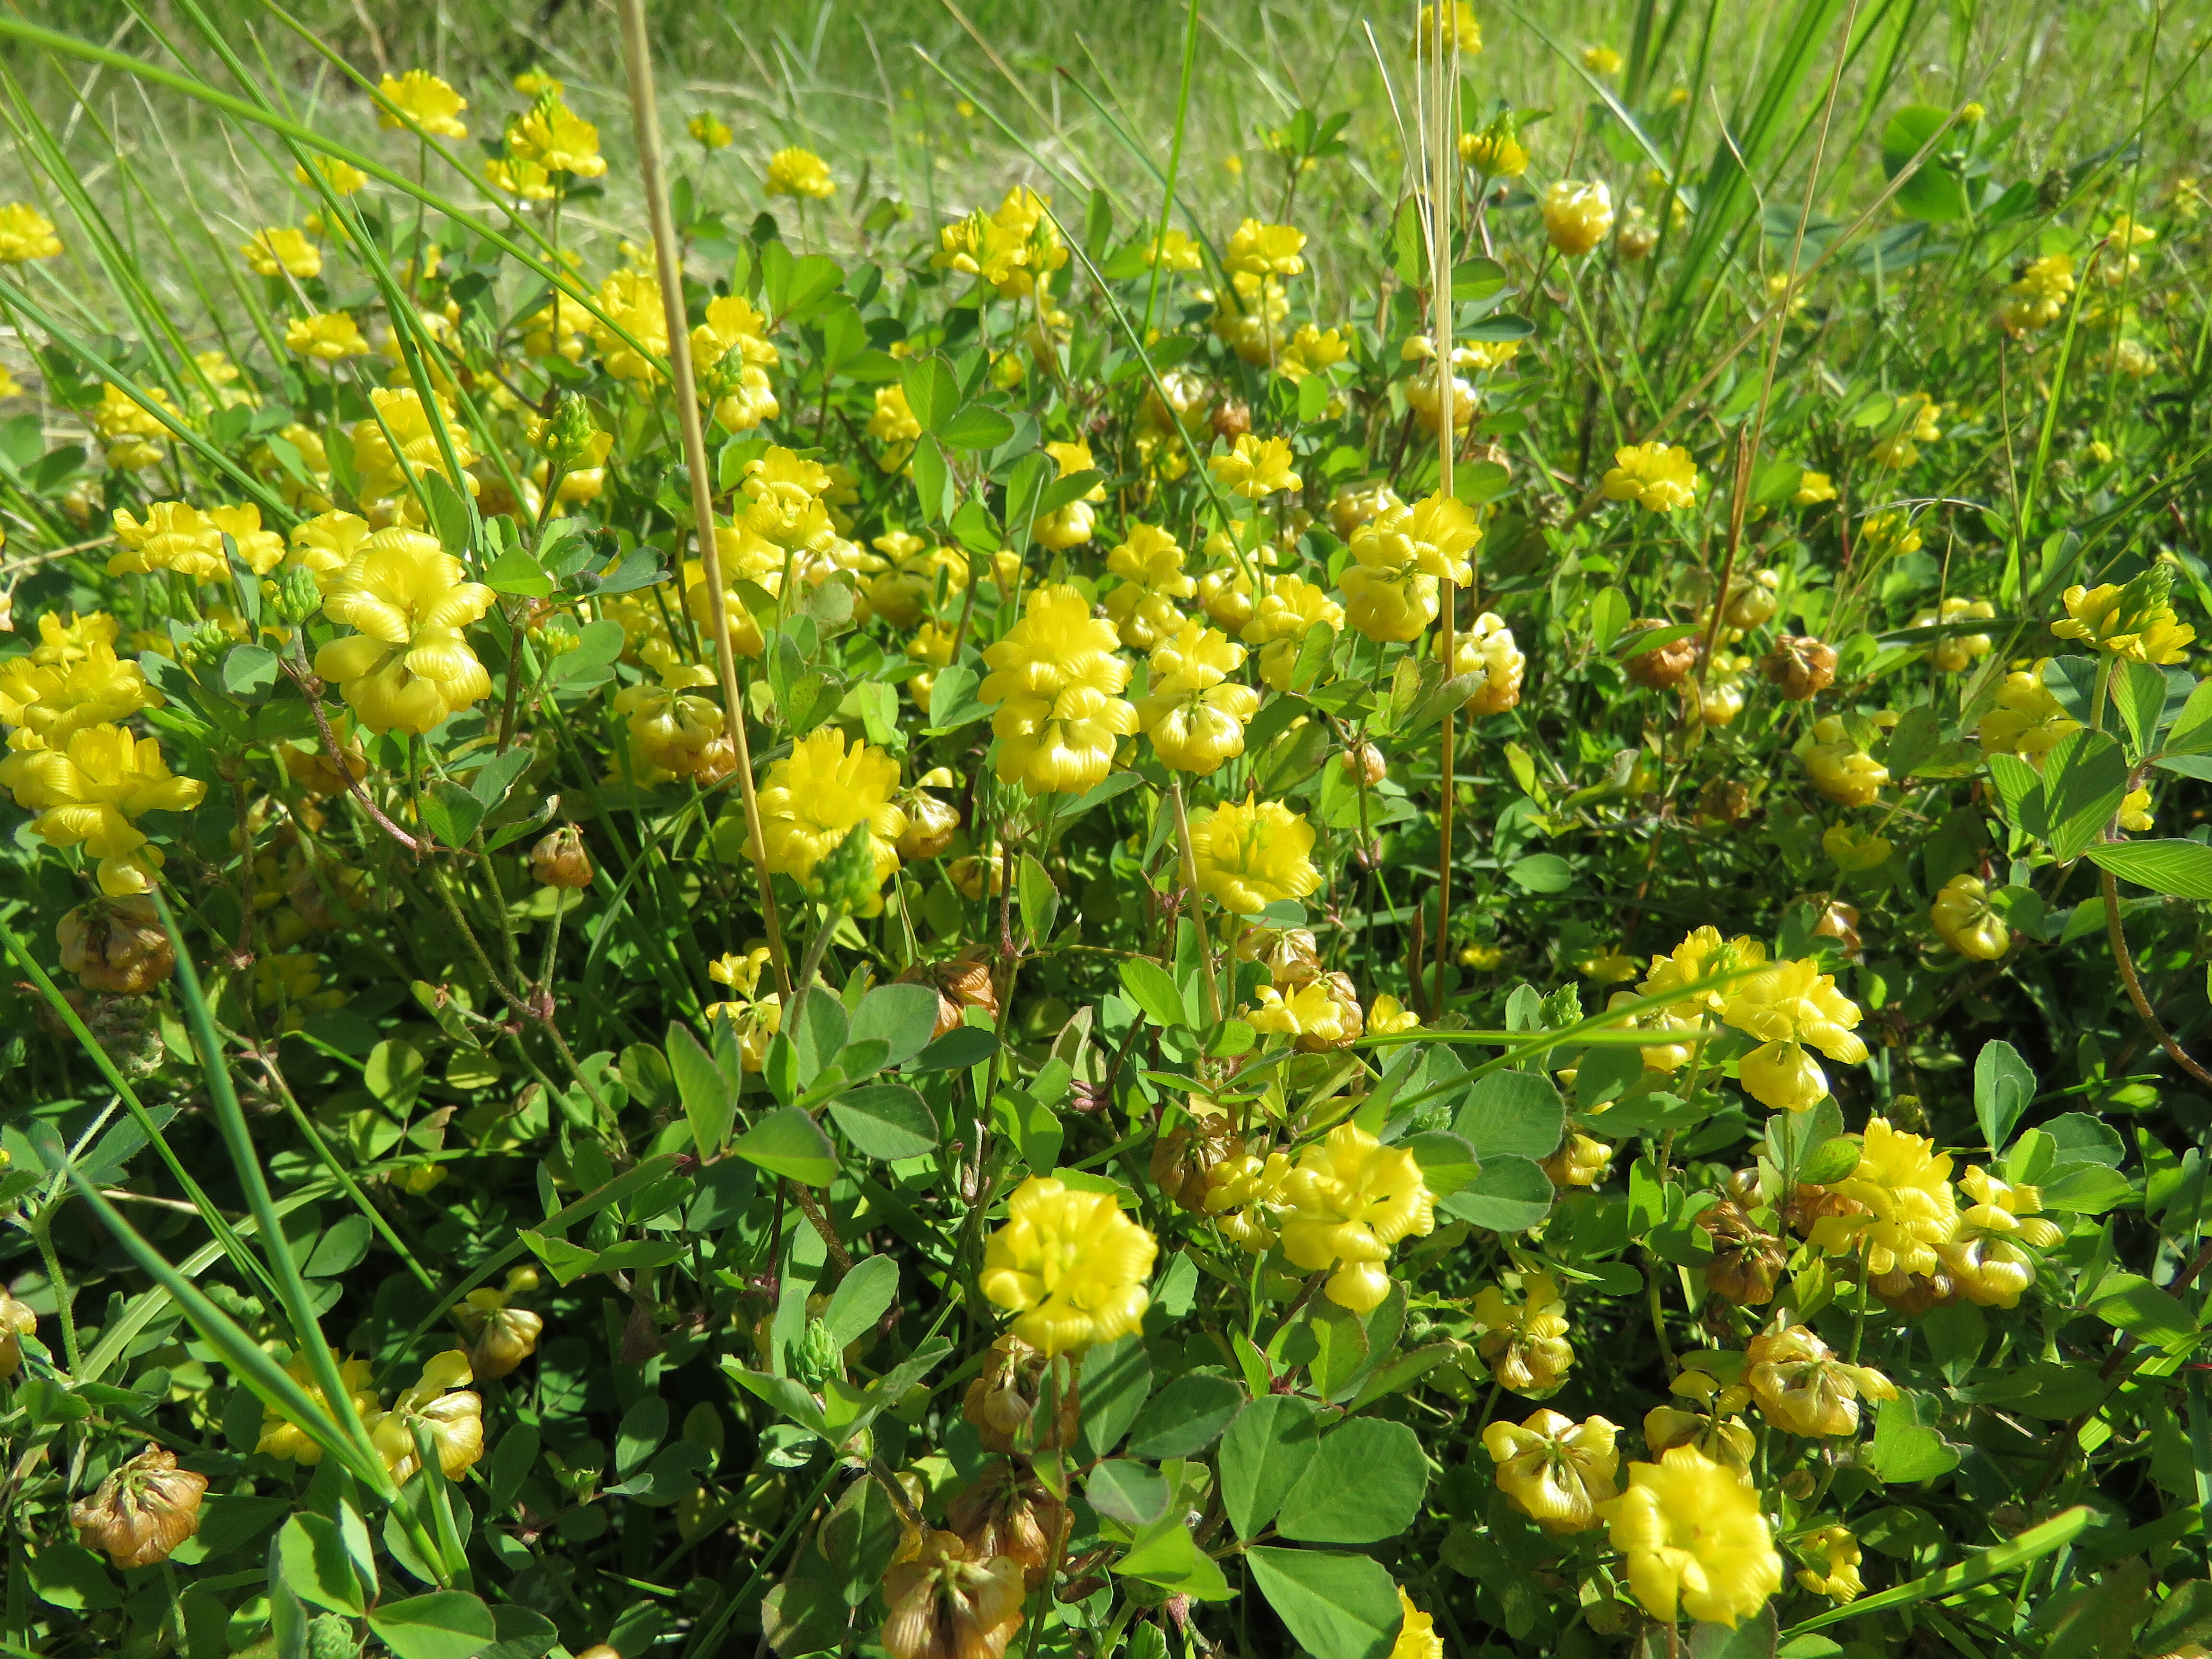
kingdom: Plantae
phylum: Tracheophyta
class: Magnoliopsida
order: Fabales
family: Fabaceae
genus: Trifolium
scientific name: Trifolium aureum
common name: Golden clover
